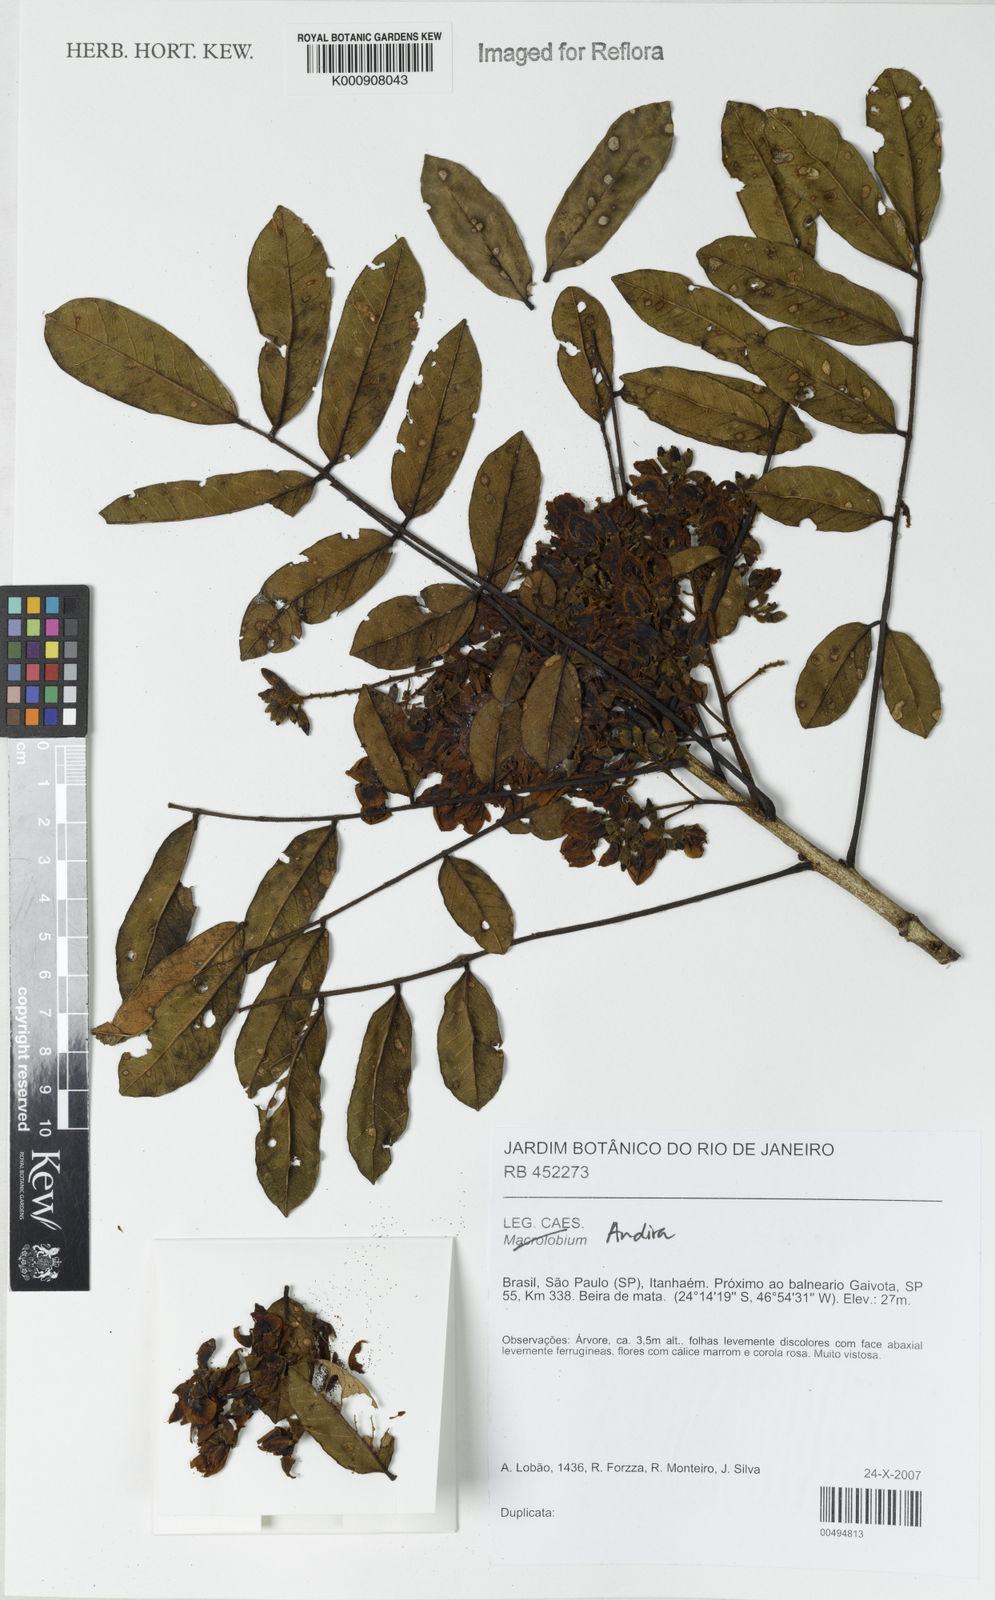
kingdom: Plantae
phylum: Tracheophyta
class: Magnoliopsida
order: Fabales
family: Fabaceae
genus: Andira
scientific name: Andira
